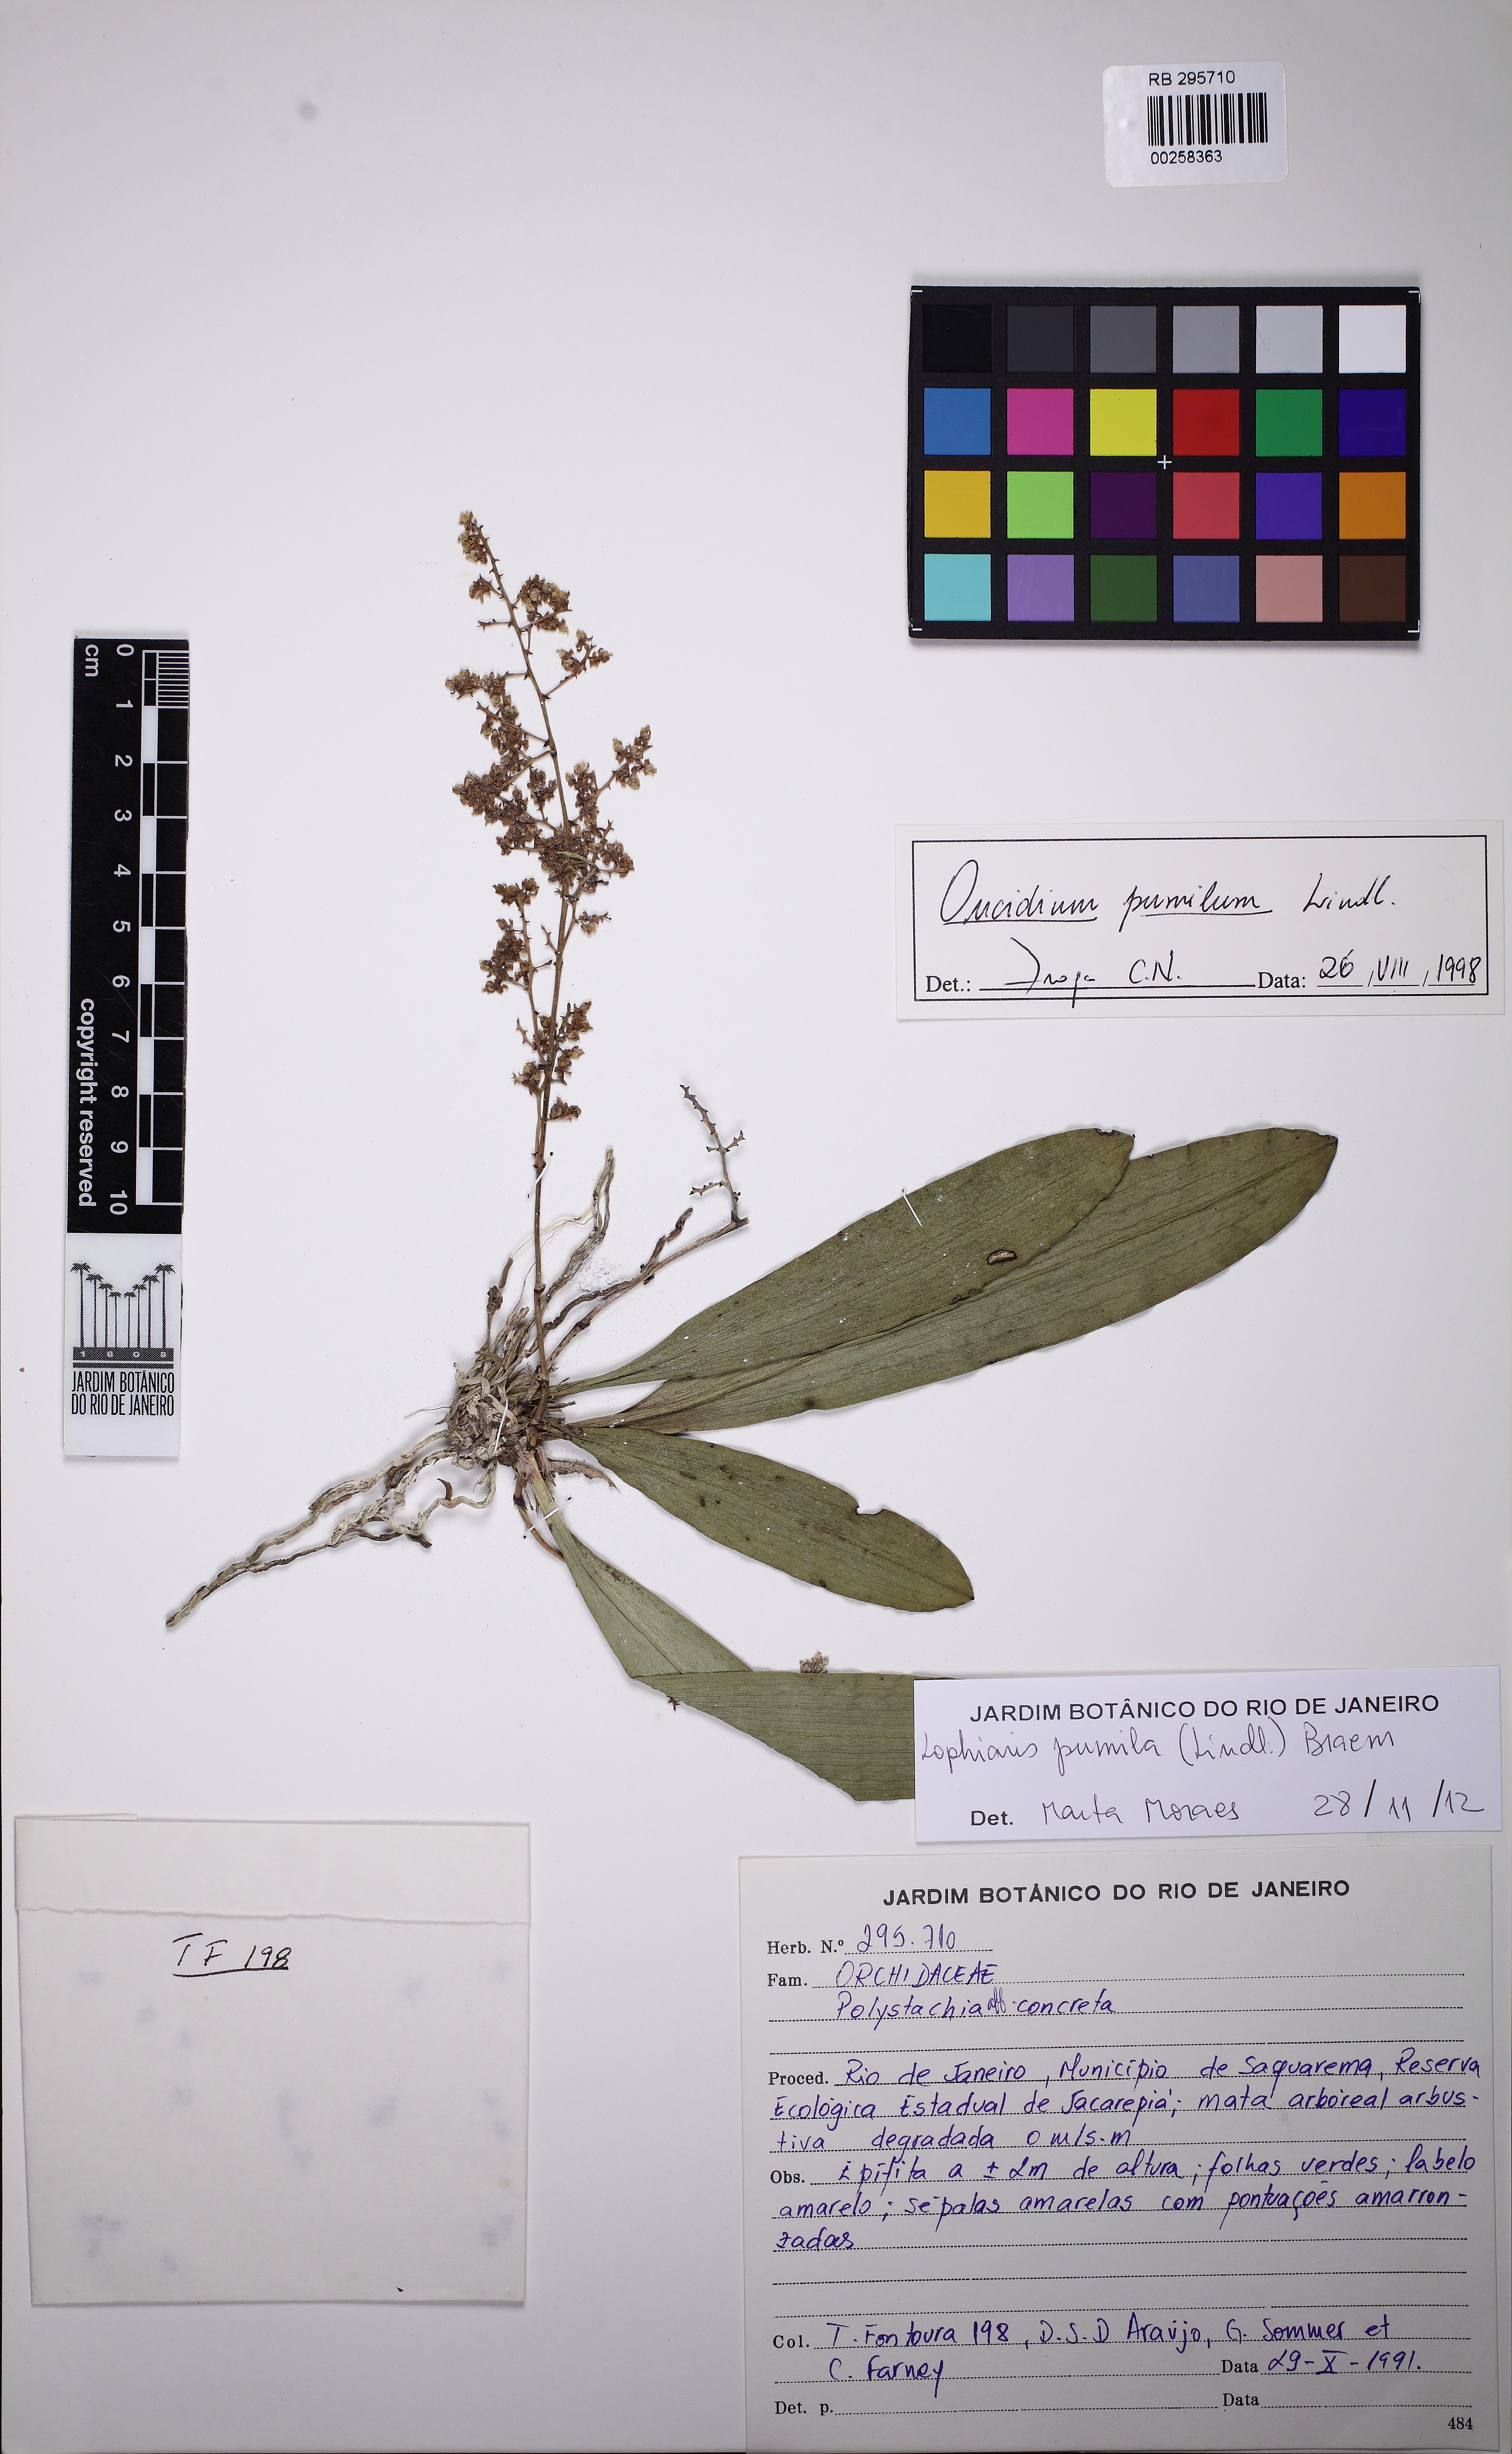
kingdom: Plantae
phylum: Tracheophyta
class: Liliopsida
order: Asparagales
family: Orchidaceae
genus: Trichocentrum
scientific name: Trichocentrum pumilum
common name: Mule-ear orchid
